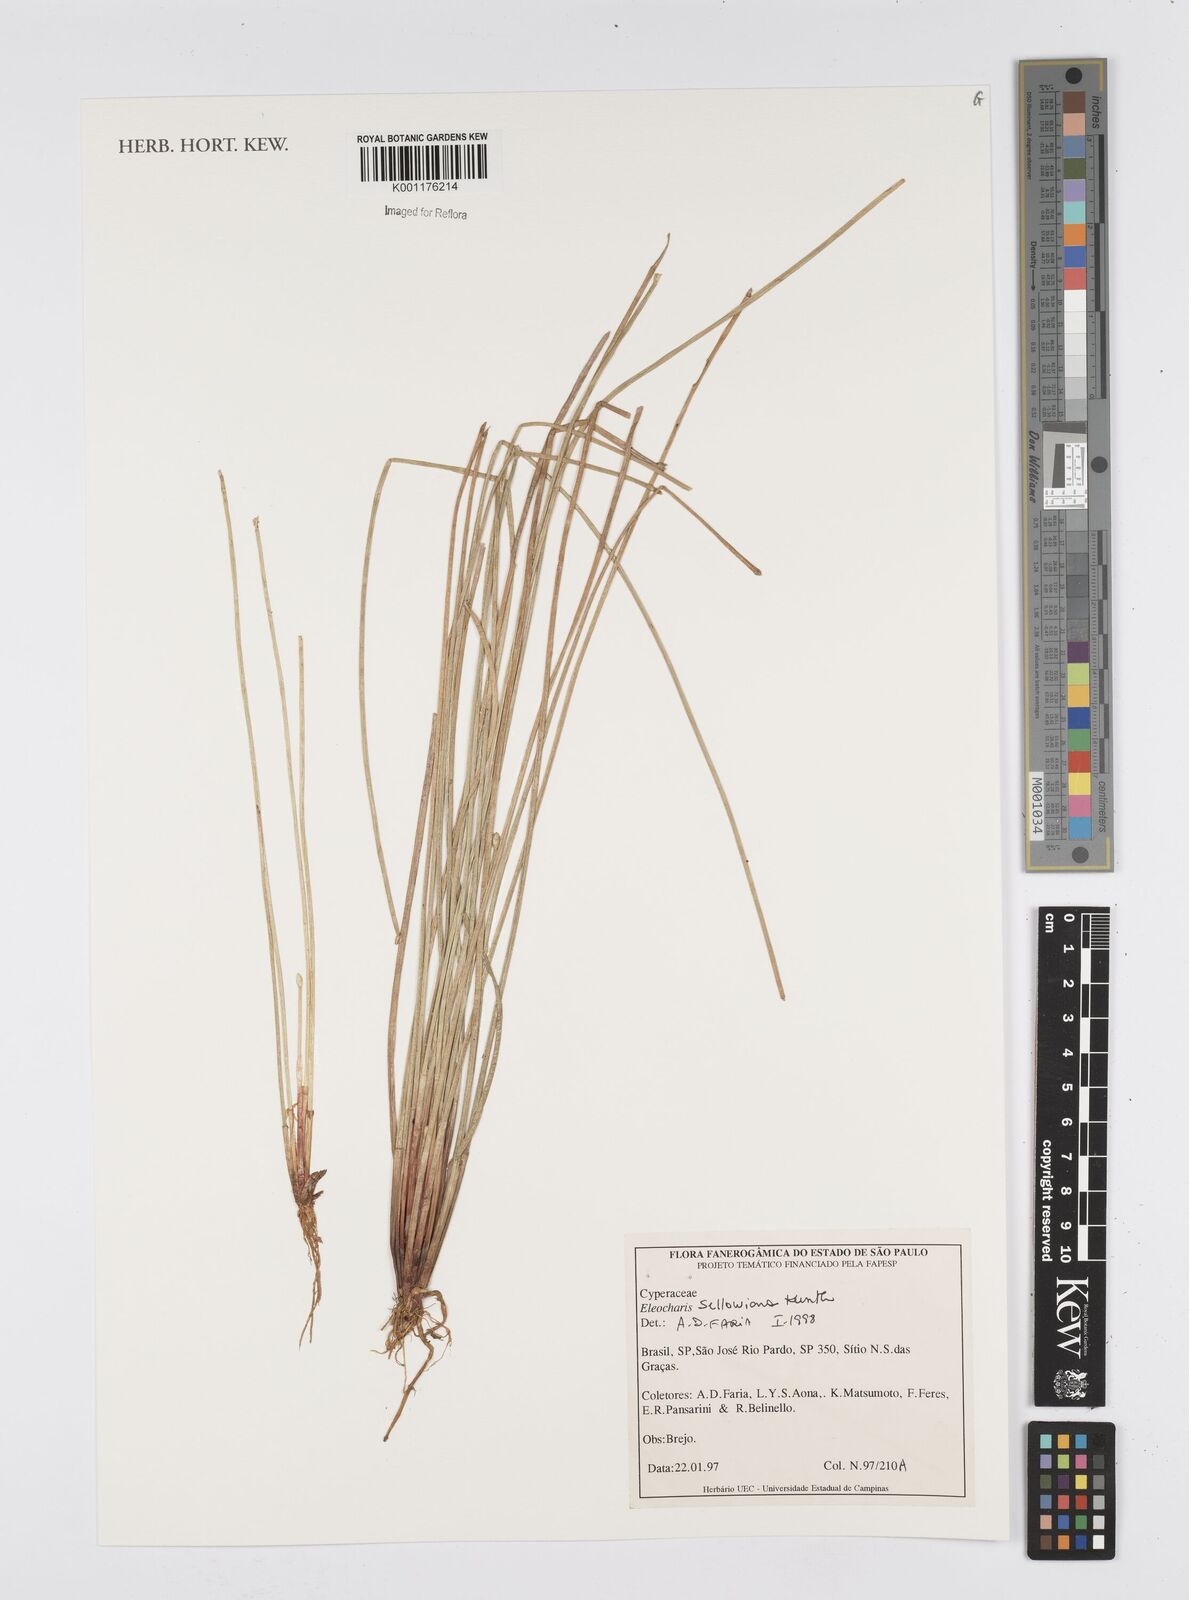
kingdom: Plantae
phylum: Tracheophyta
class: Liliopsida
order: Poales
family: Cyperaceae
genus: Eleocharis
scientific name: Eleocharis sellowiana
